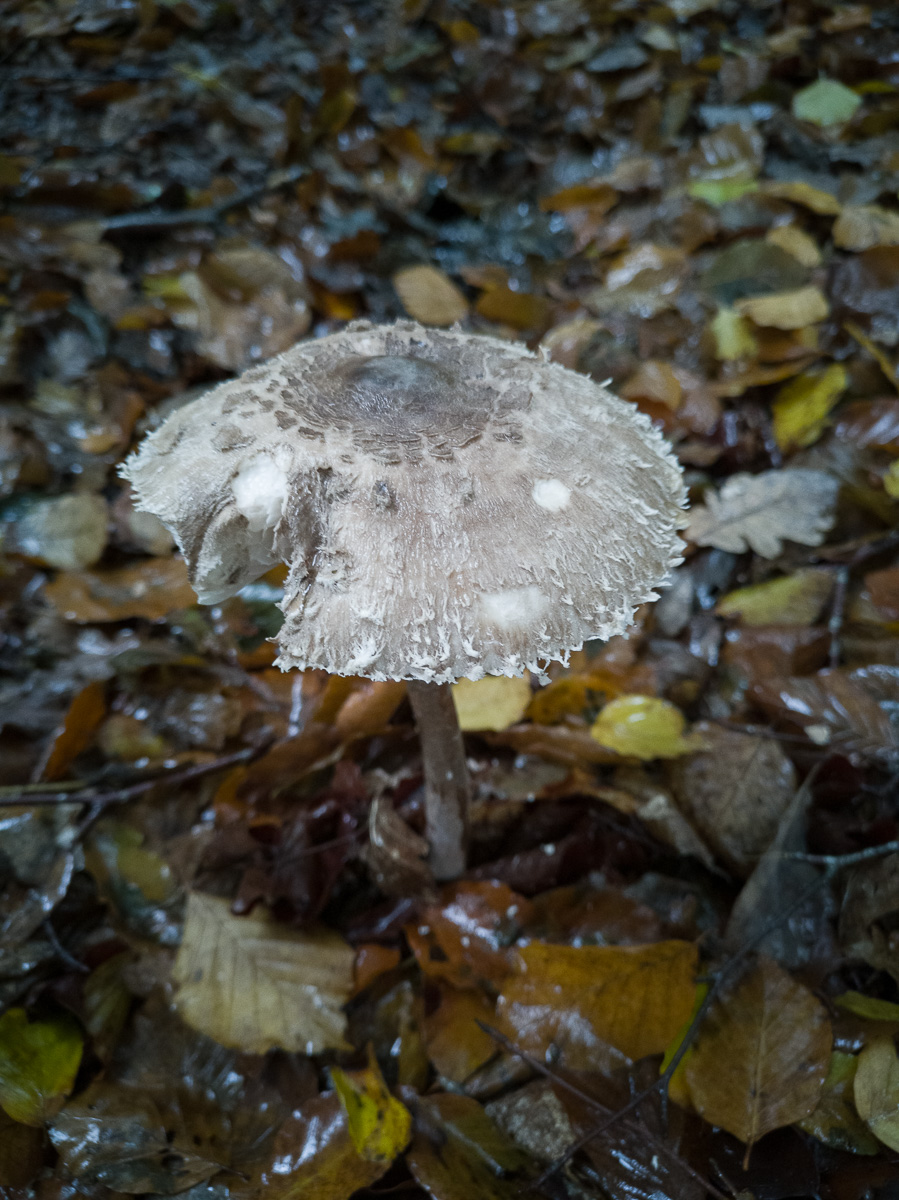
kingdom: Fungi
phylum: Basidiomycota
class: Agaricomycetes
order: Agaricales
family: Agaricaceae
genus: Macrolepiota
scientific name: Macrolepiota fuliginosa
